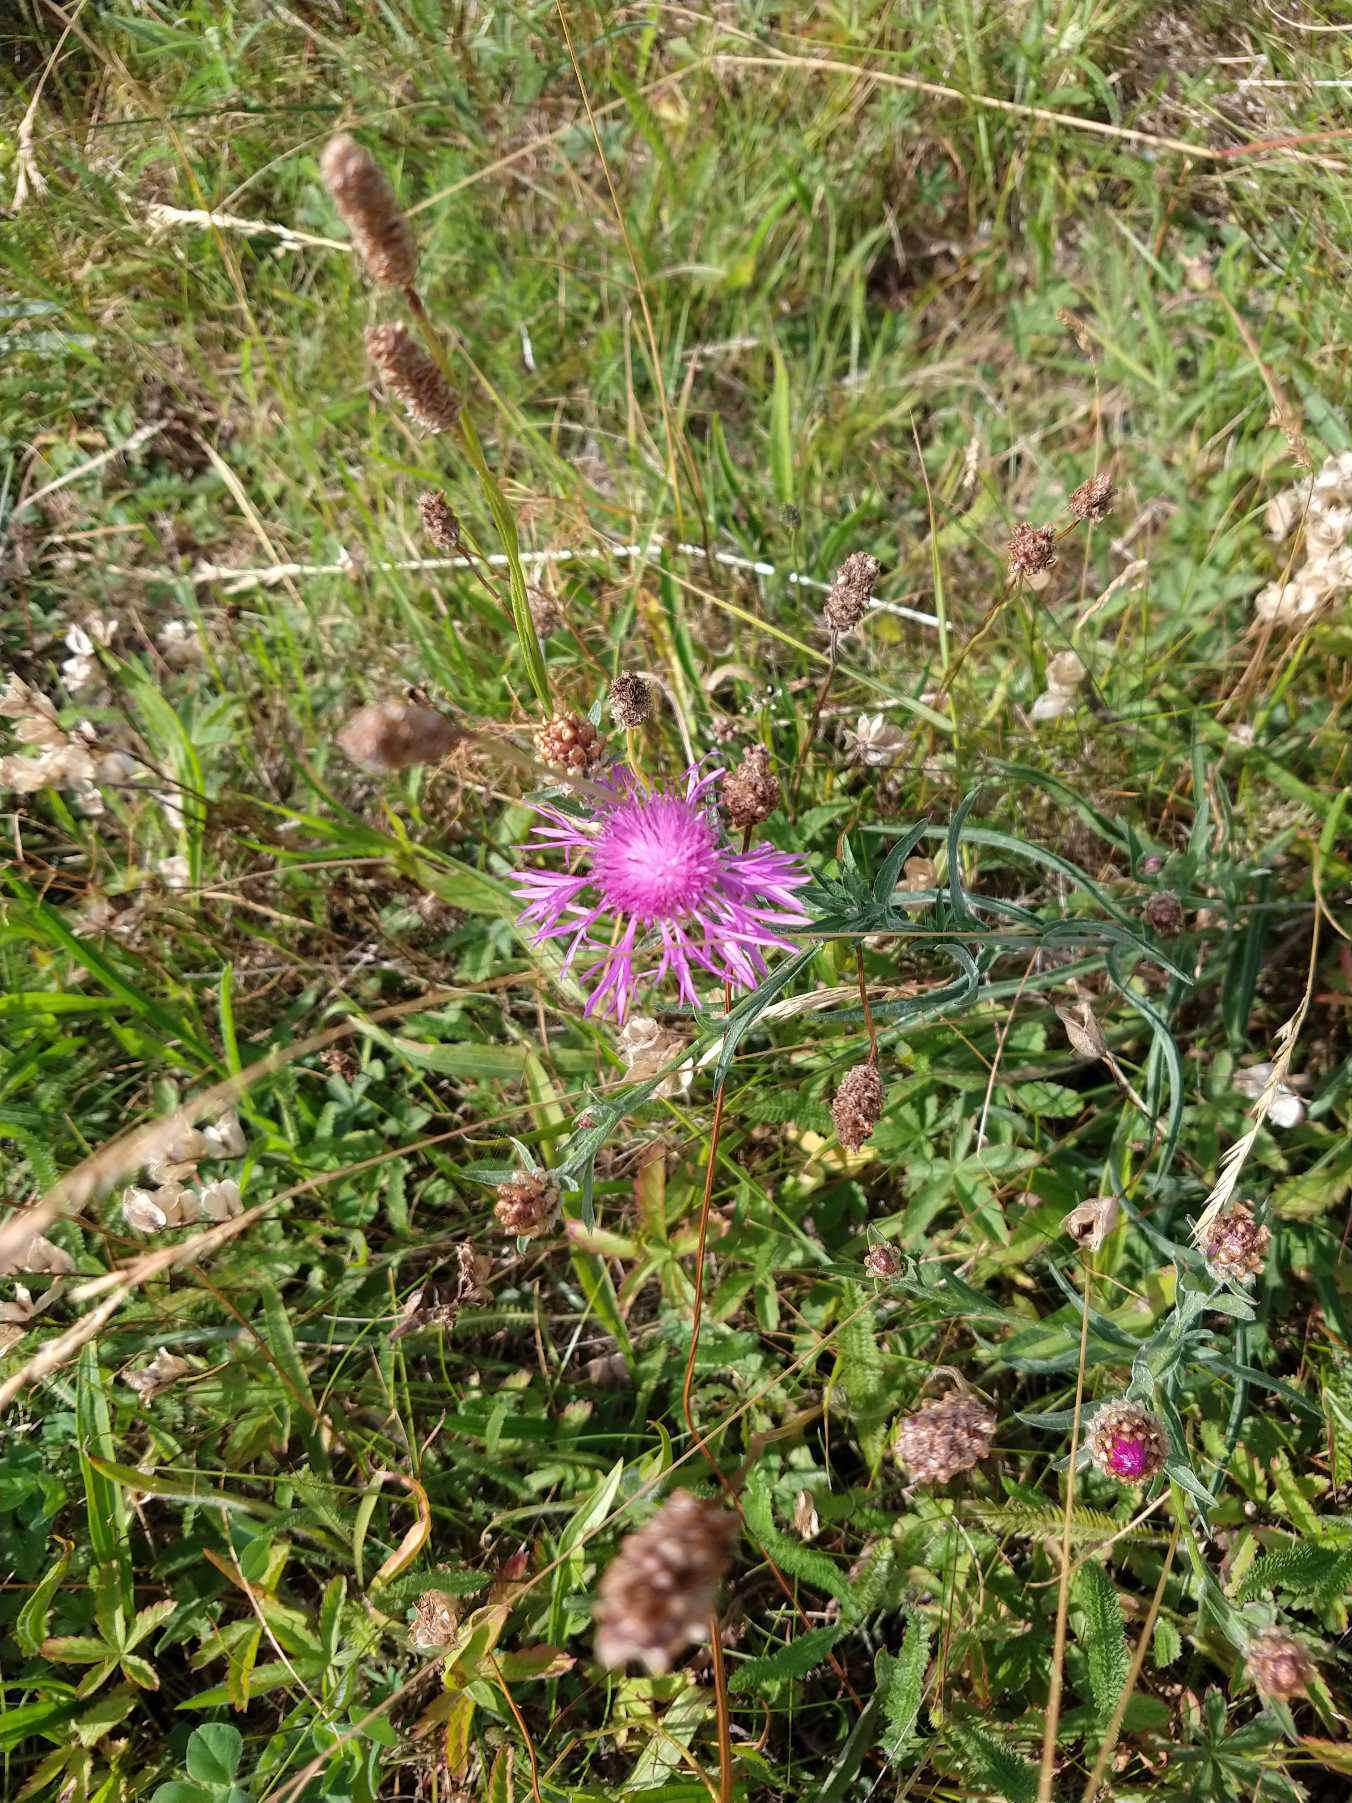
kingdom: Plantae
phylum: Tracheophyta
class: Magnoliopsida
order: Asterales
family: Asteraceae
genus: Centaurea
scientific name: Centaurea jacea
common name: Almindelig knopurt
